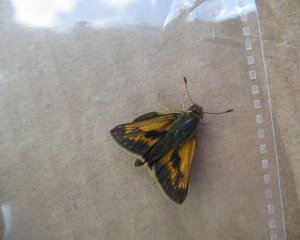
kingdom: Animalia
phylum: Arthropoda
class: Insecta
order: Lepidoptera
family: Hesperiidae
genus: Polites
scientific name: Polites
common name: Long Dash Skipper
